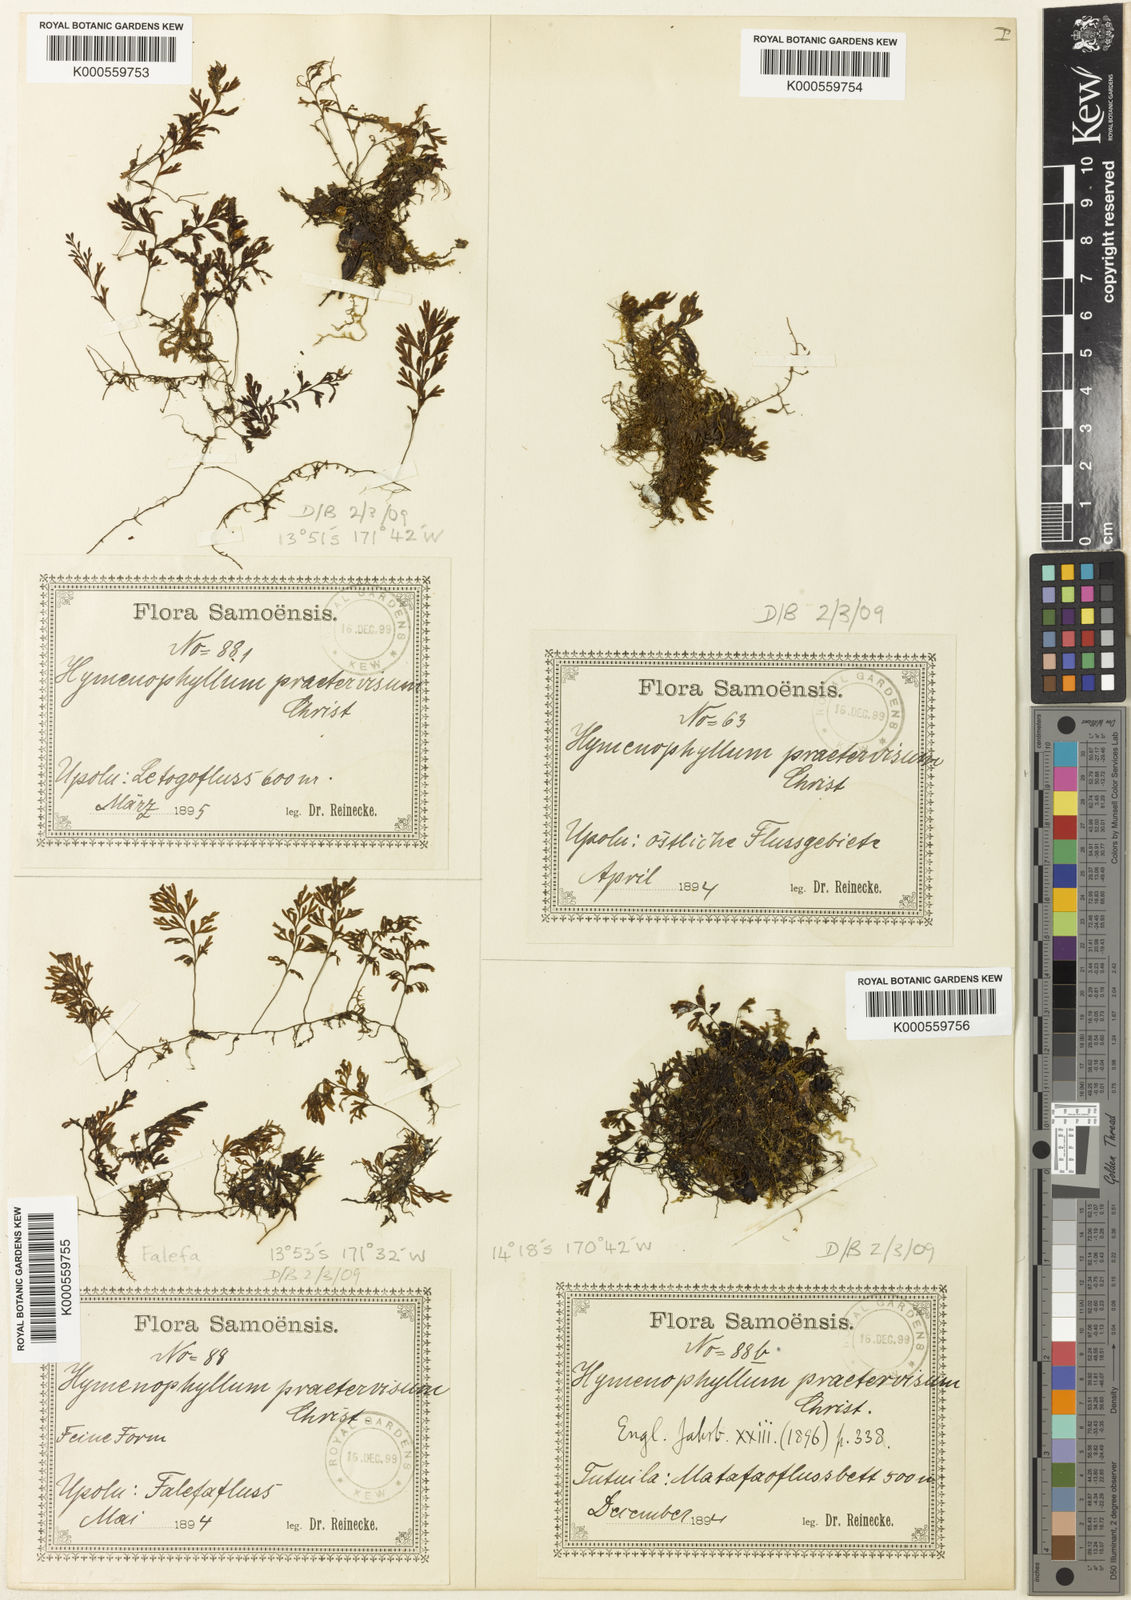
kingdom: Plantae
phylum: Tracheophyta
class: Polypodiopsida
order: Hymenophyllales
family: Hymenophyllaceae
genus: Hymenophyllum
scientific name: Hymenophyllum praetervisum
